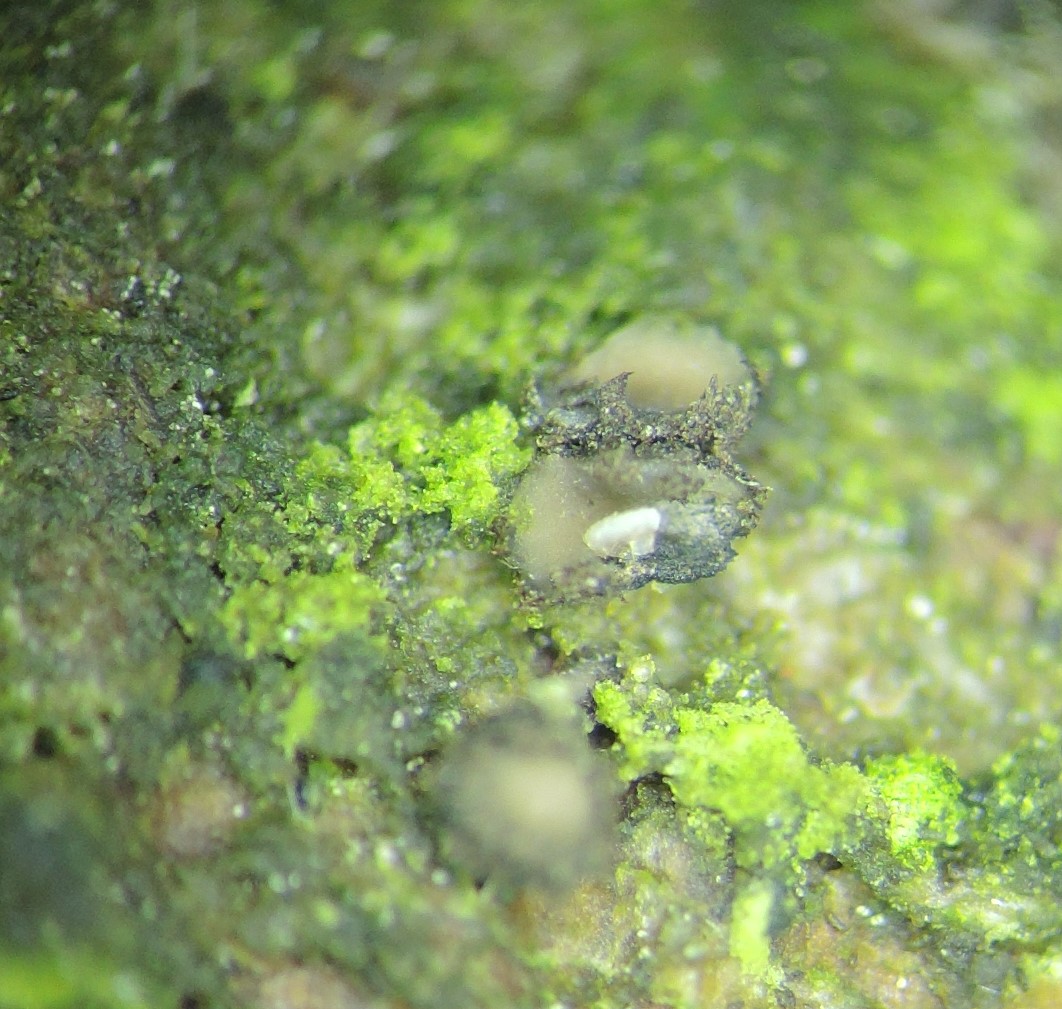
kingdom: Fungi
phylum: Ascomycota
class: Leotiomycetes
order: Helotiales
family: Cenangiaceae
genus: Crumenulopsis
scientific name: Crumenulopsis pinicola
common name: fyrre-filtskive
